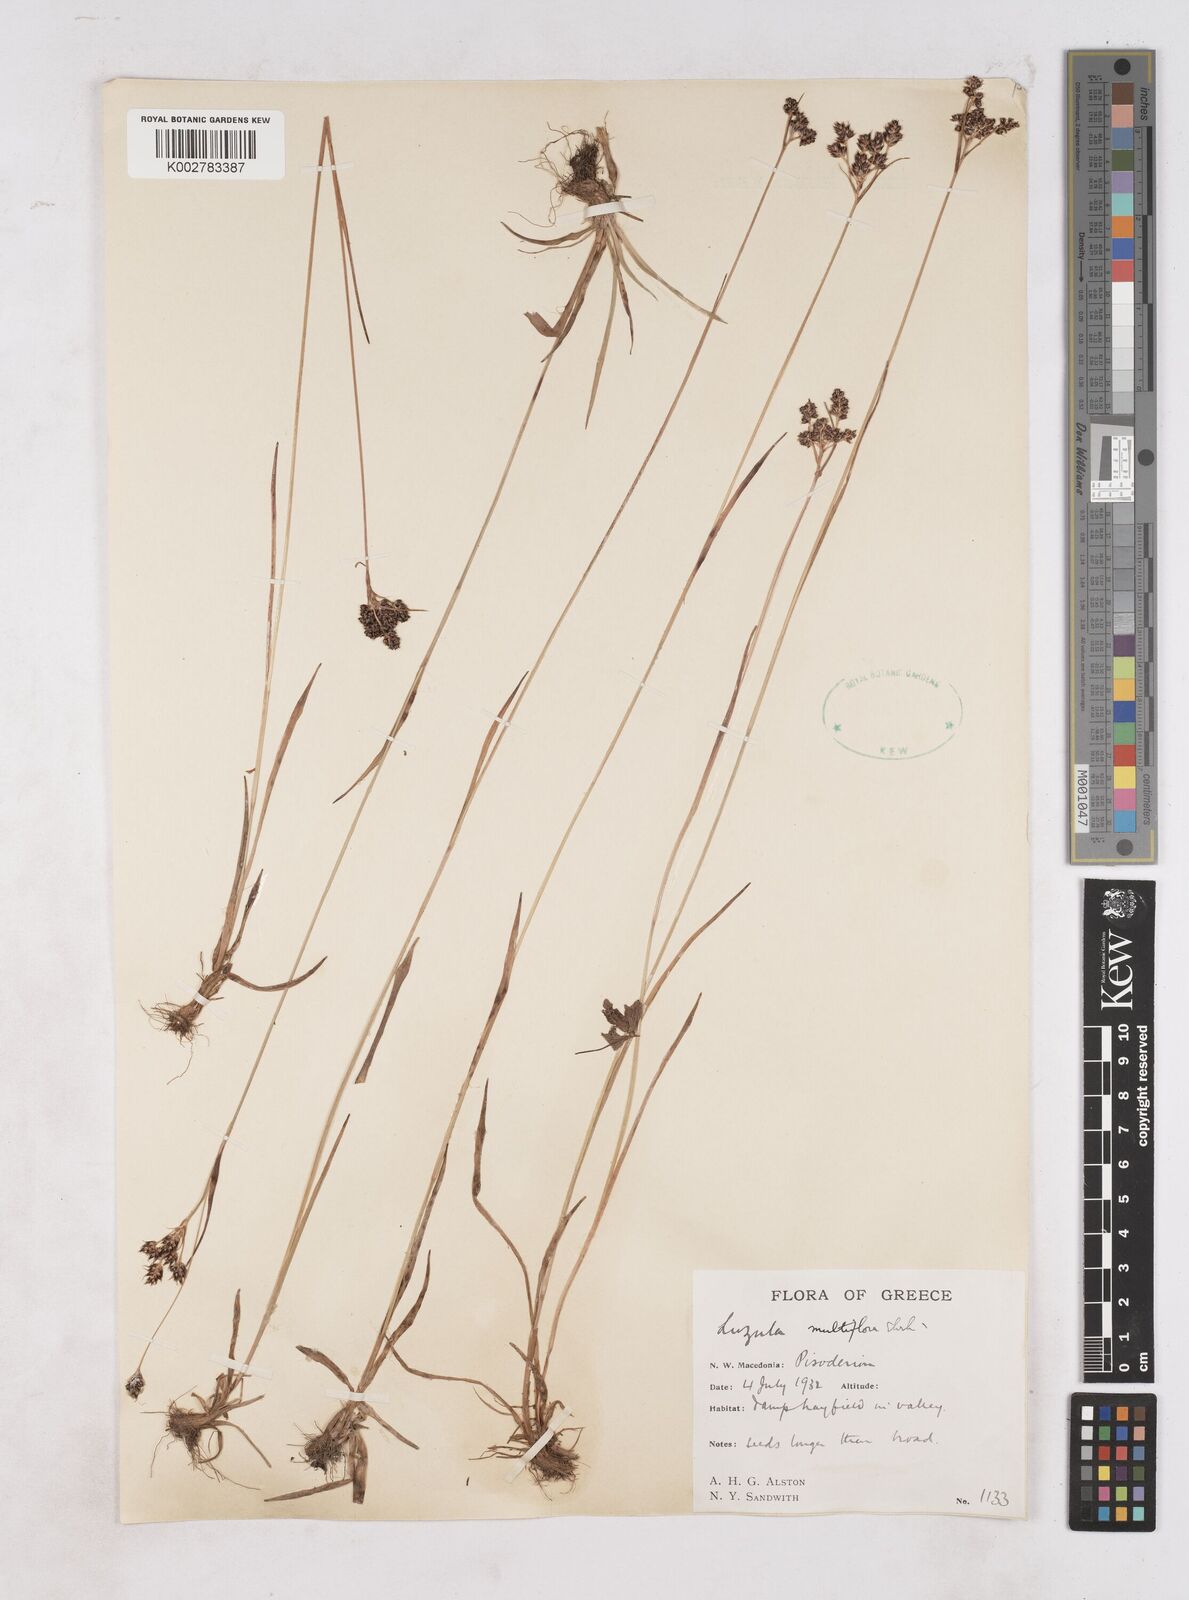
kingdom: Plantae
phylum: Tracheophyta
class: Liliopsida
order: Poales
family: Juncaceae
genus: Luzula
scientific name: Luzula multiflora
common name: Heath wood-rush
